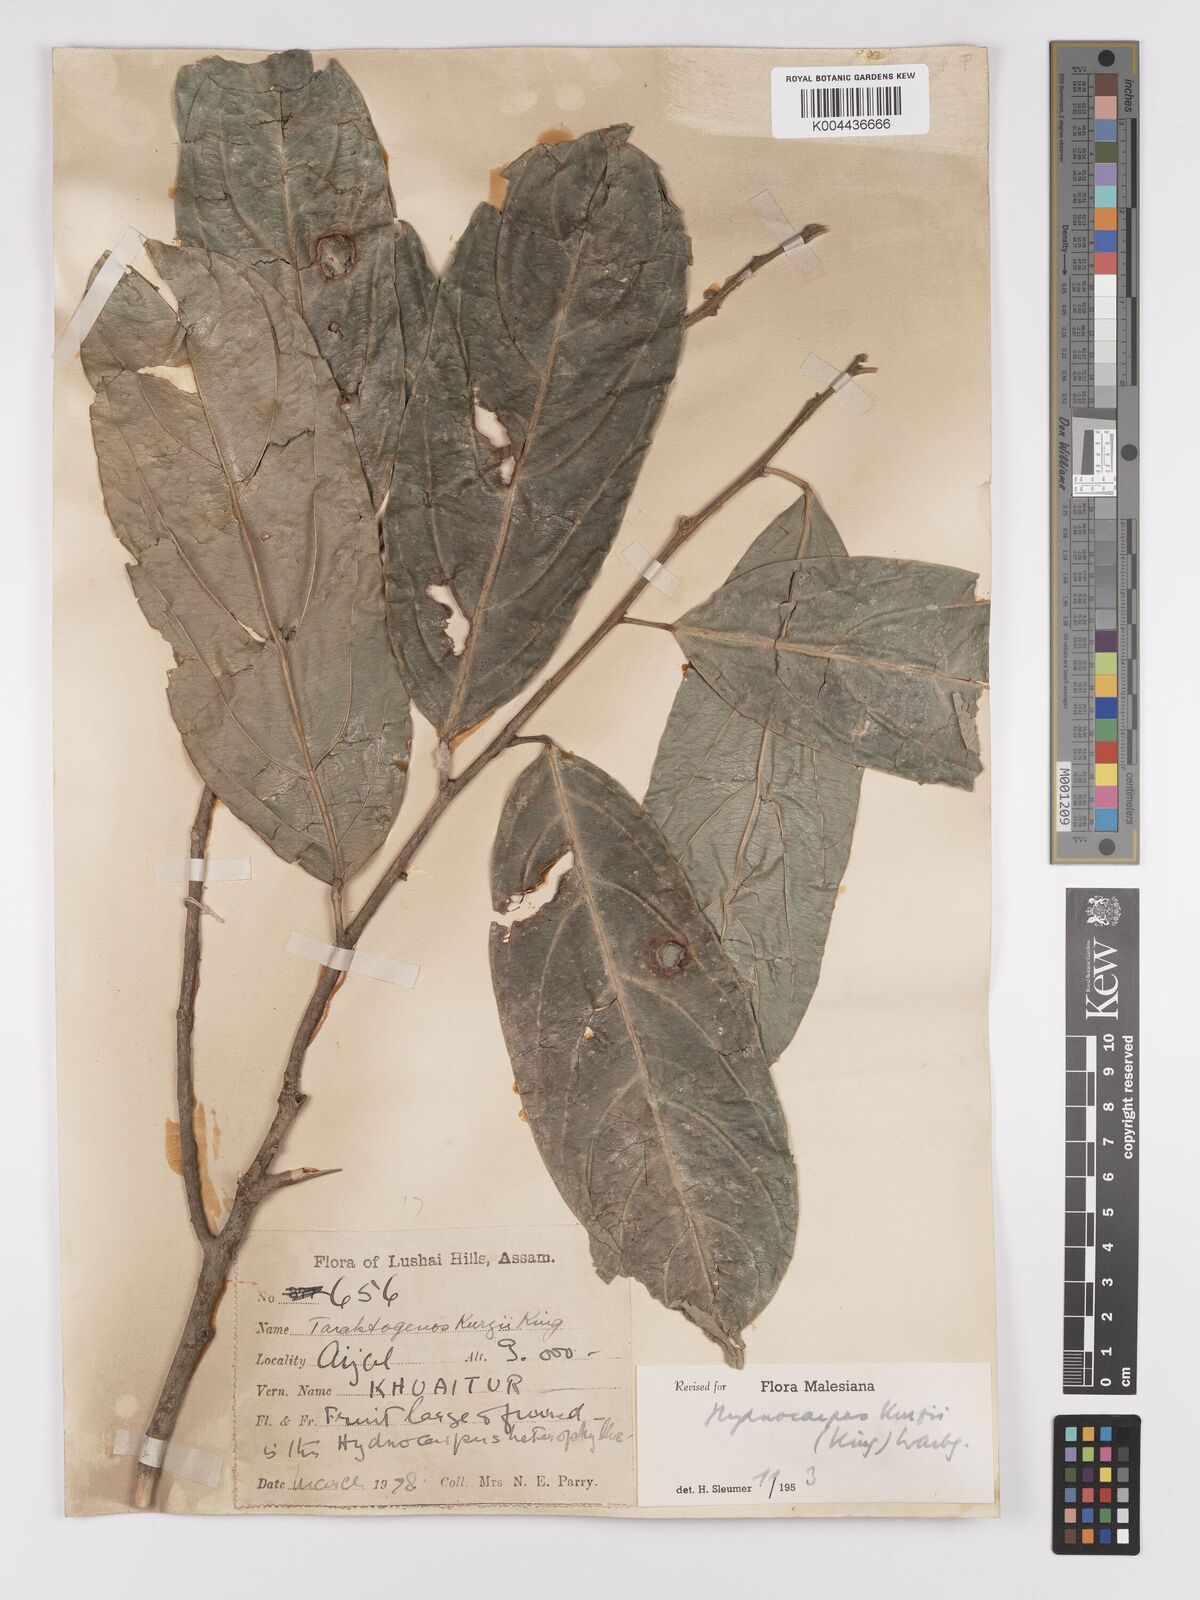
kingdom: Plantae
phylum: Tracheophyta
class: Magnoliopsida
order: Malpighiales
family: Achariaceae
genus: Hydnocarpus
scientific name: Hydnocarpus kurzii
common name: Chaulmoogra
